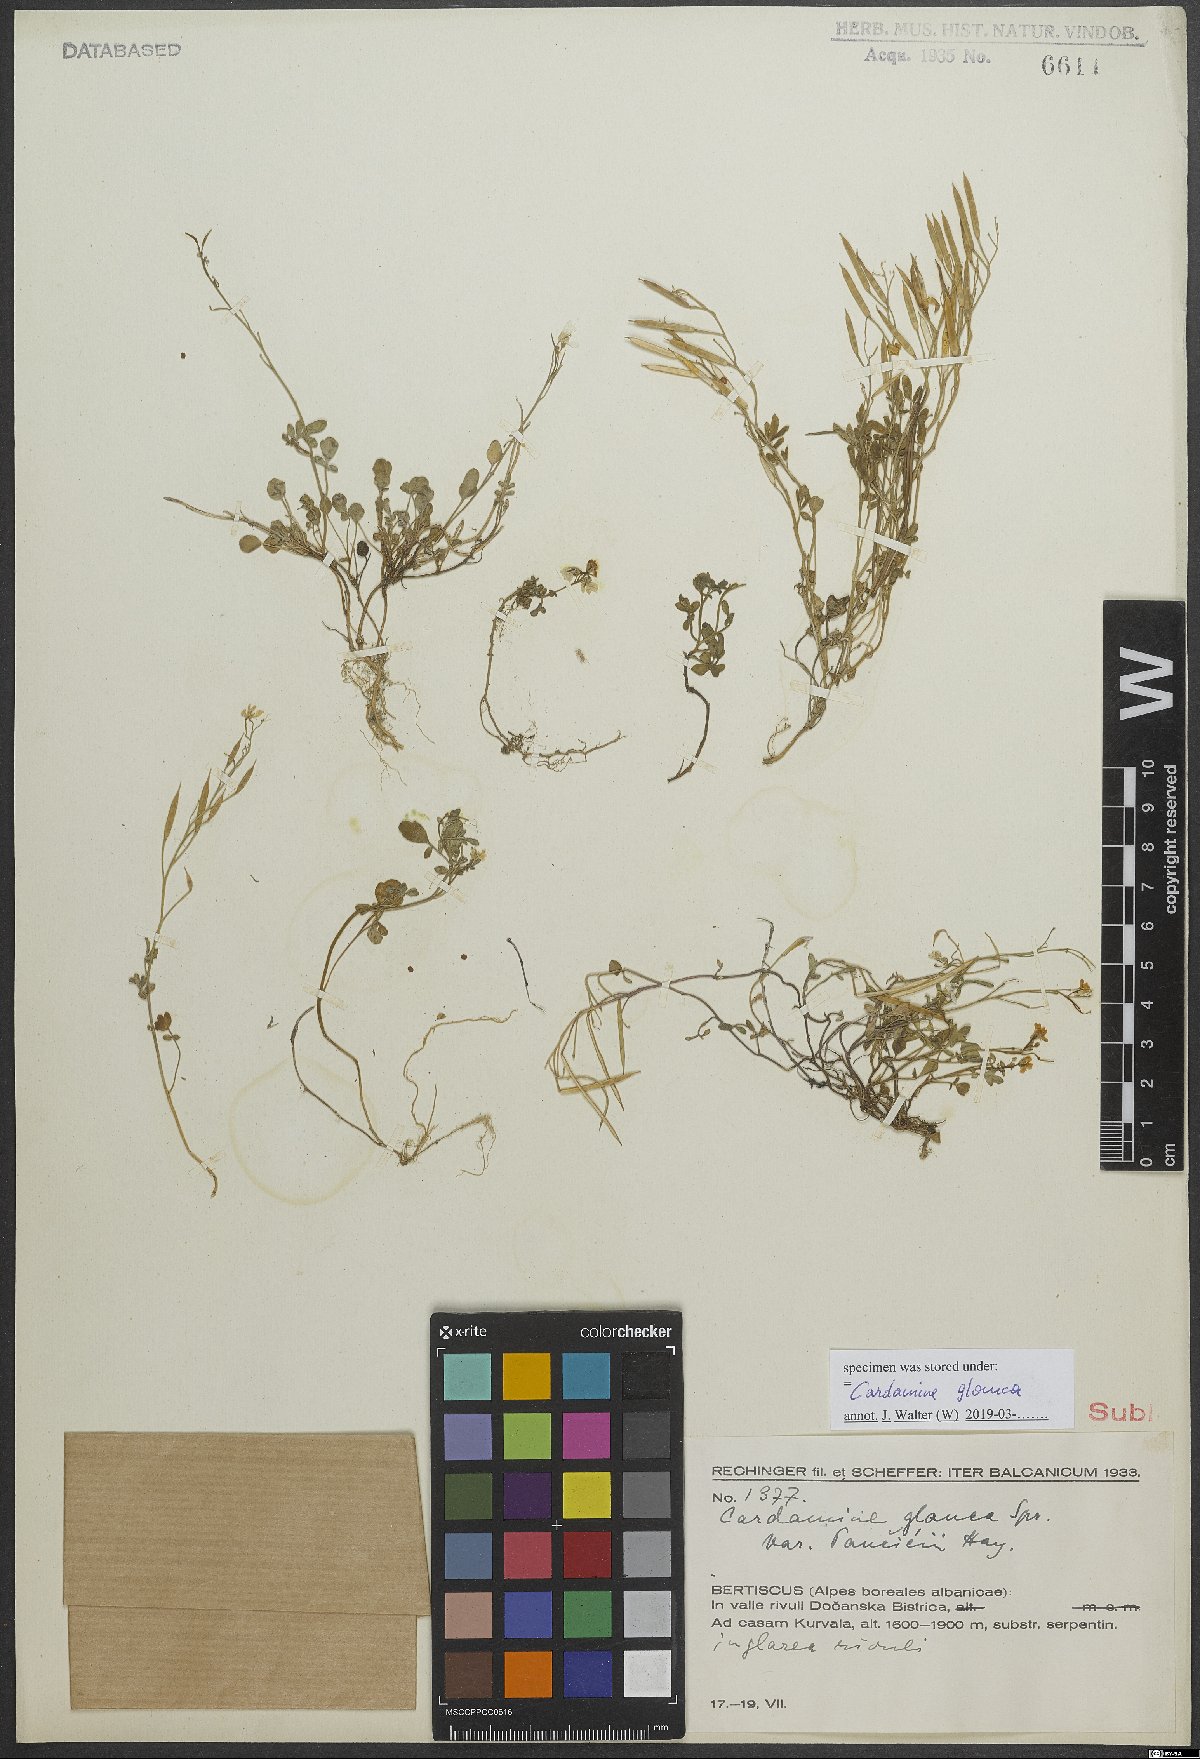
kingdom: Plantae
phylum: Tracheophyta
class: Magnoliopsida
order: Brassicales
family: Brassicaceae
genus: Cardamine
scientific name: Cardamine glauca
